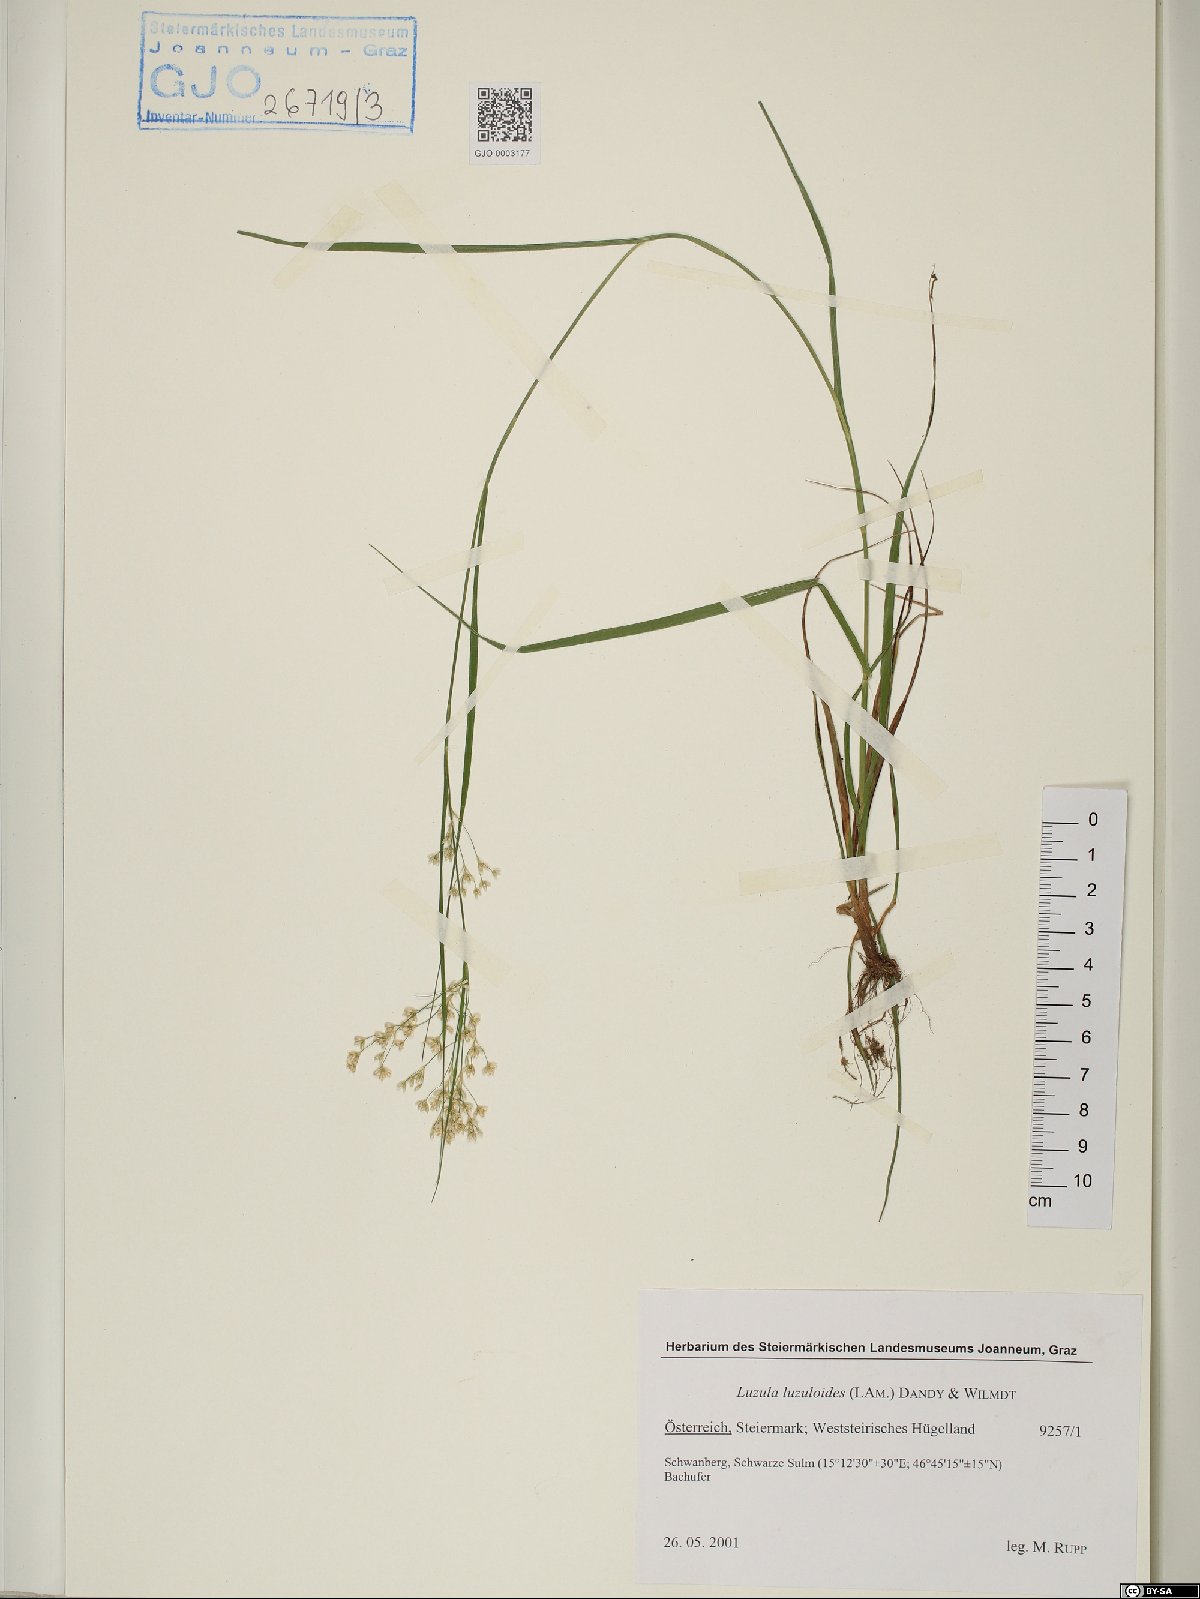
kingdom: Plantae
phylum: Tracheophyta
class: Liliopsida
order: Poales
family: Juncaceae
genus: Luzula
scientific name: Luzula luzuloides
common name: White wood-rush
